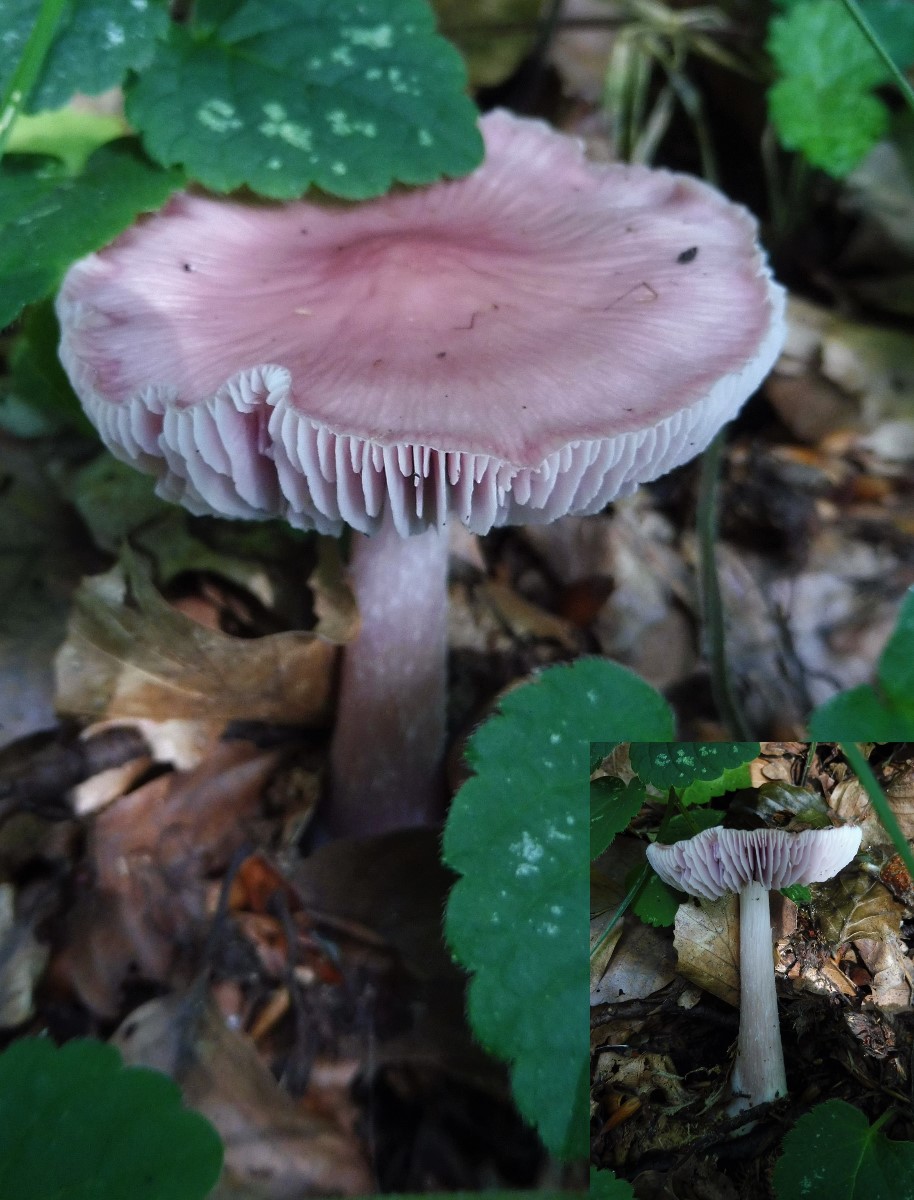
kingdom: Fungi
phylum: Basidiomycota
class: Agaricomycetes
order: Agaricales
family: Mycenaceae
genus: Mycena
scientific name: Mycena rosea
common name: rosa huesvamp
